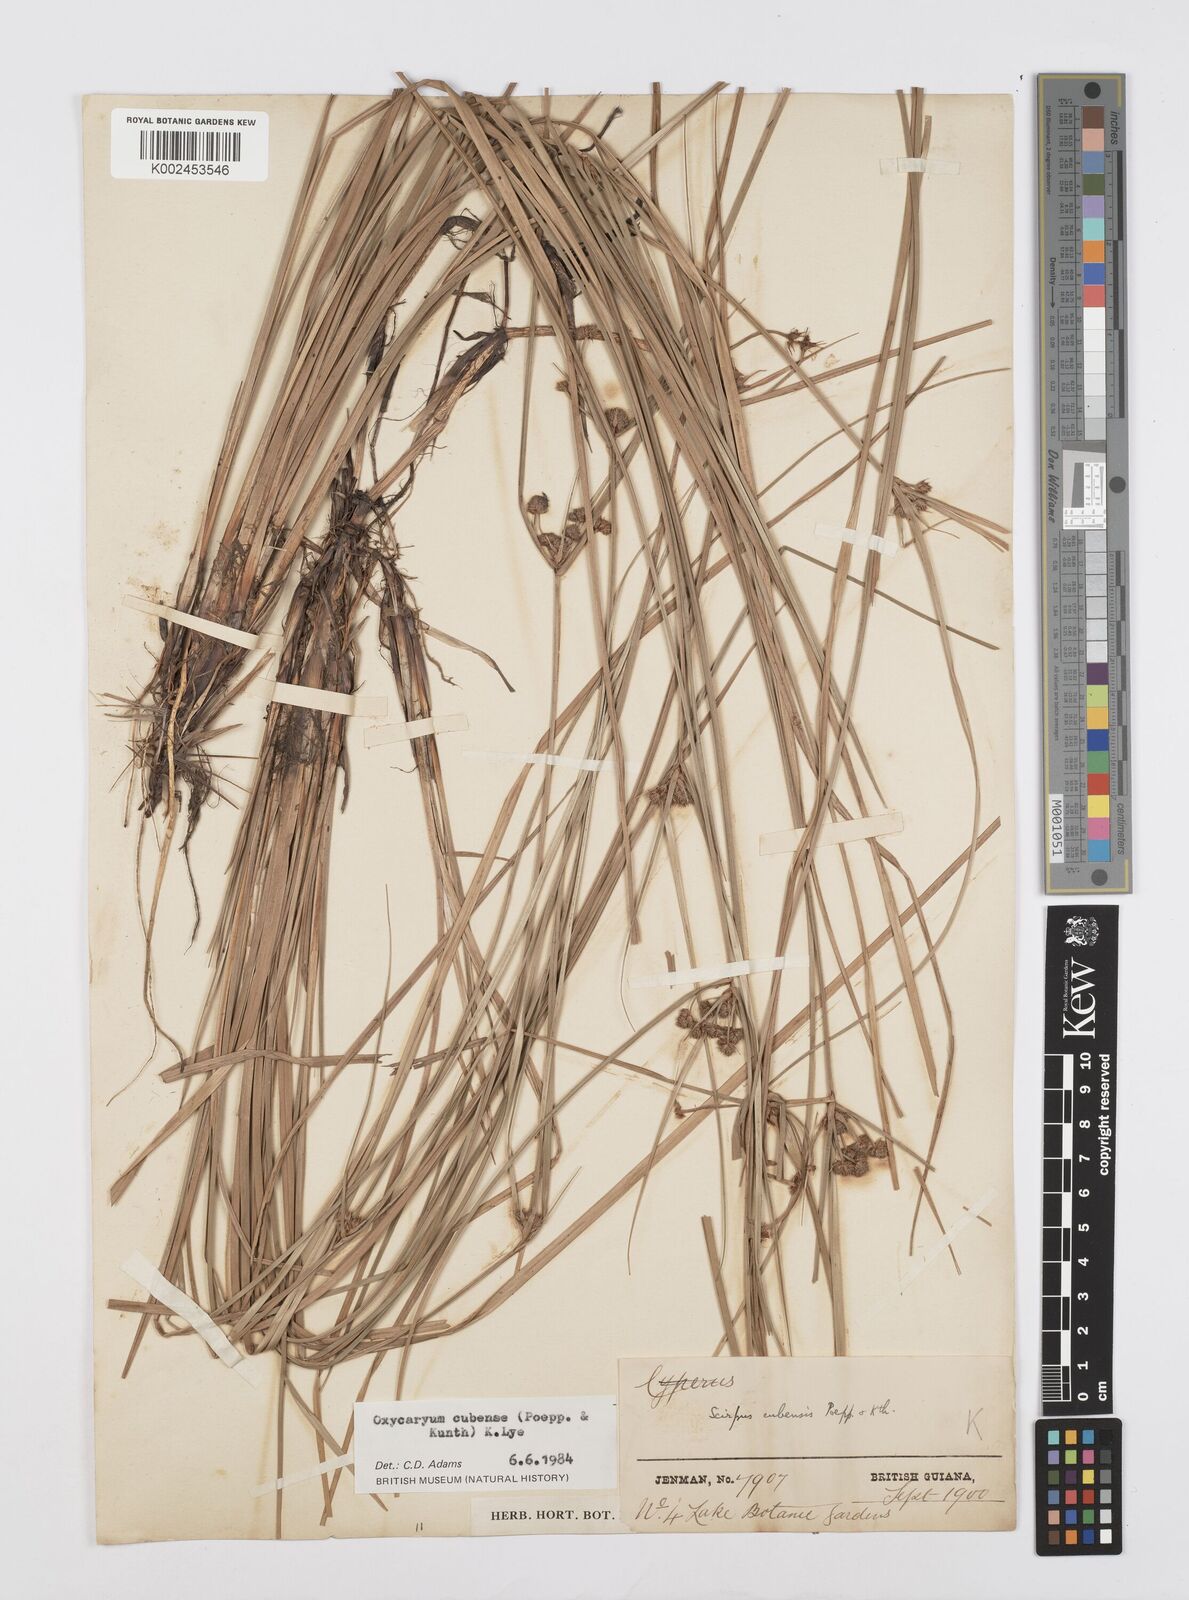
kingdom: Plantae
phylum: Tracheophyta
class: Liliopsida
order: Poales
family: Cyperaceae
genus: Cyperus
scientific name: Cyperus elegans
